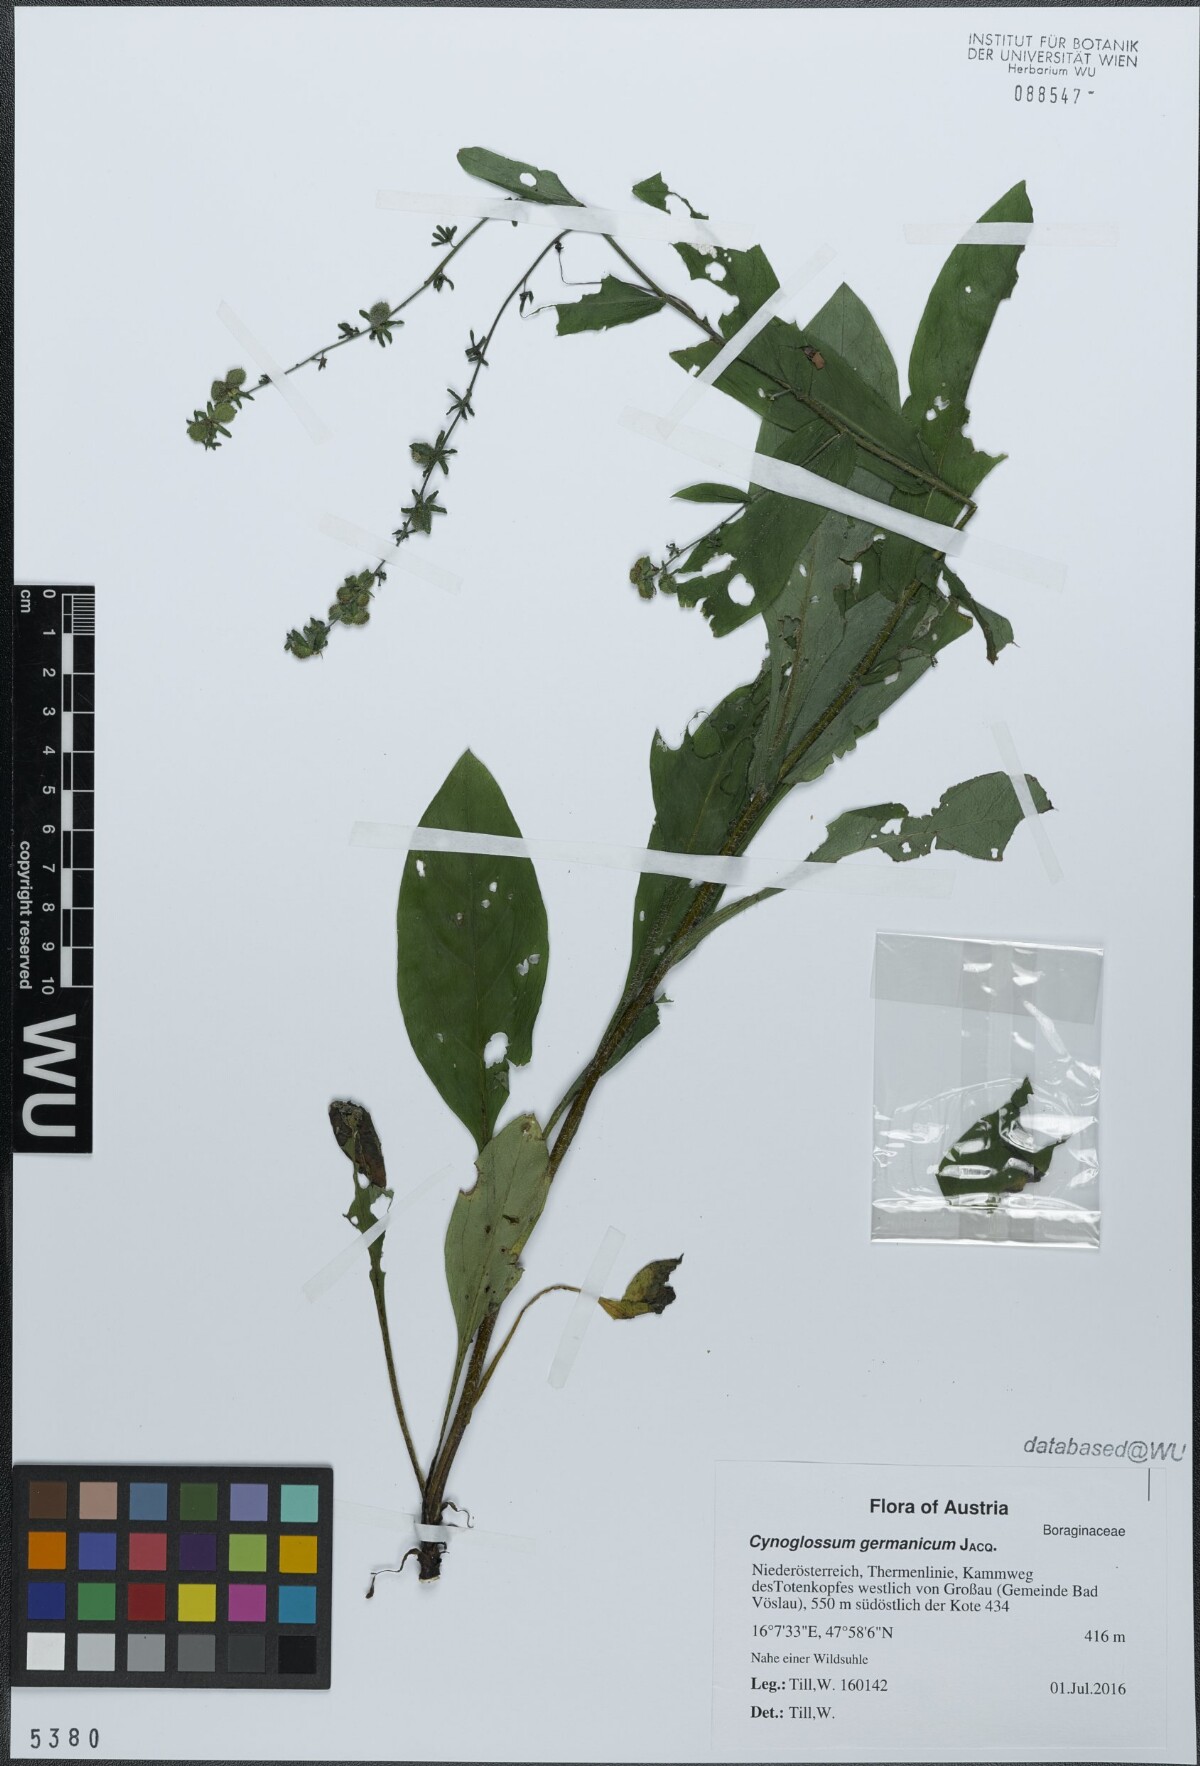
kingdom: Plantae
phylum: Tracheophyta
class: Magnoliopsida
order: Boraginales
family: Boraginaceae
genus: Cynoglossum
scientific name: Cynoglossum germanicum
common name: Green hound's-tongue
